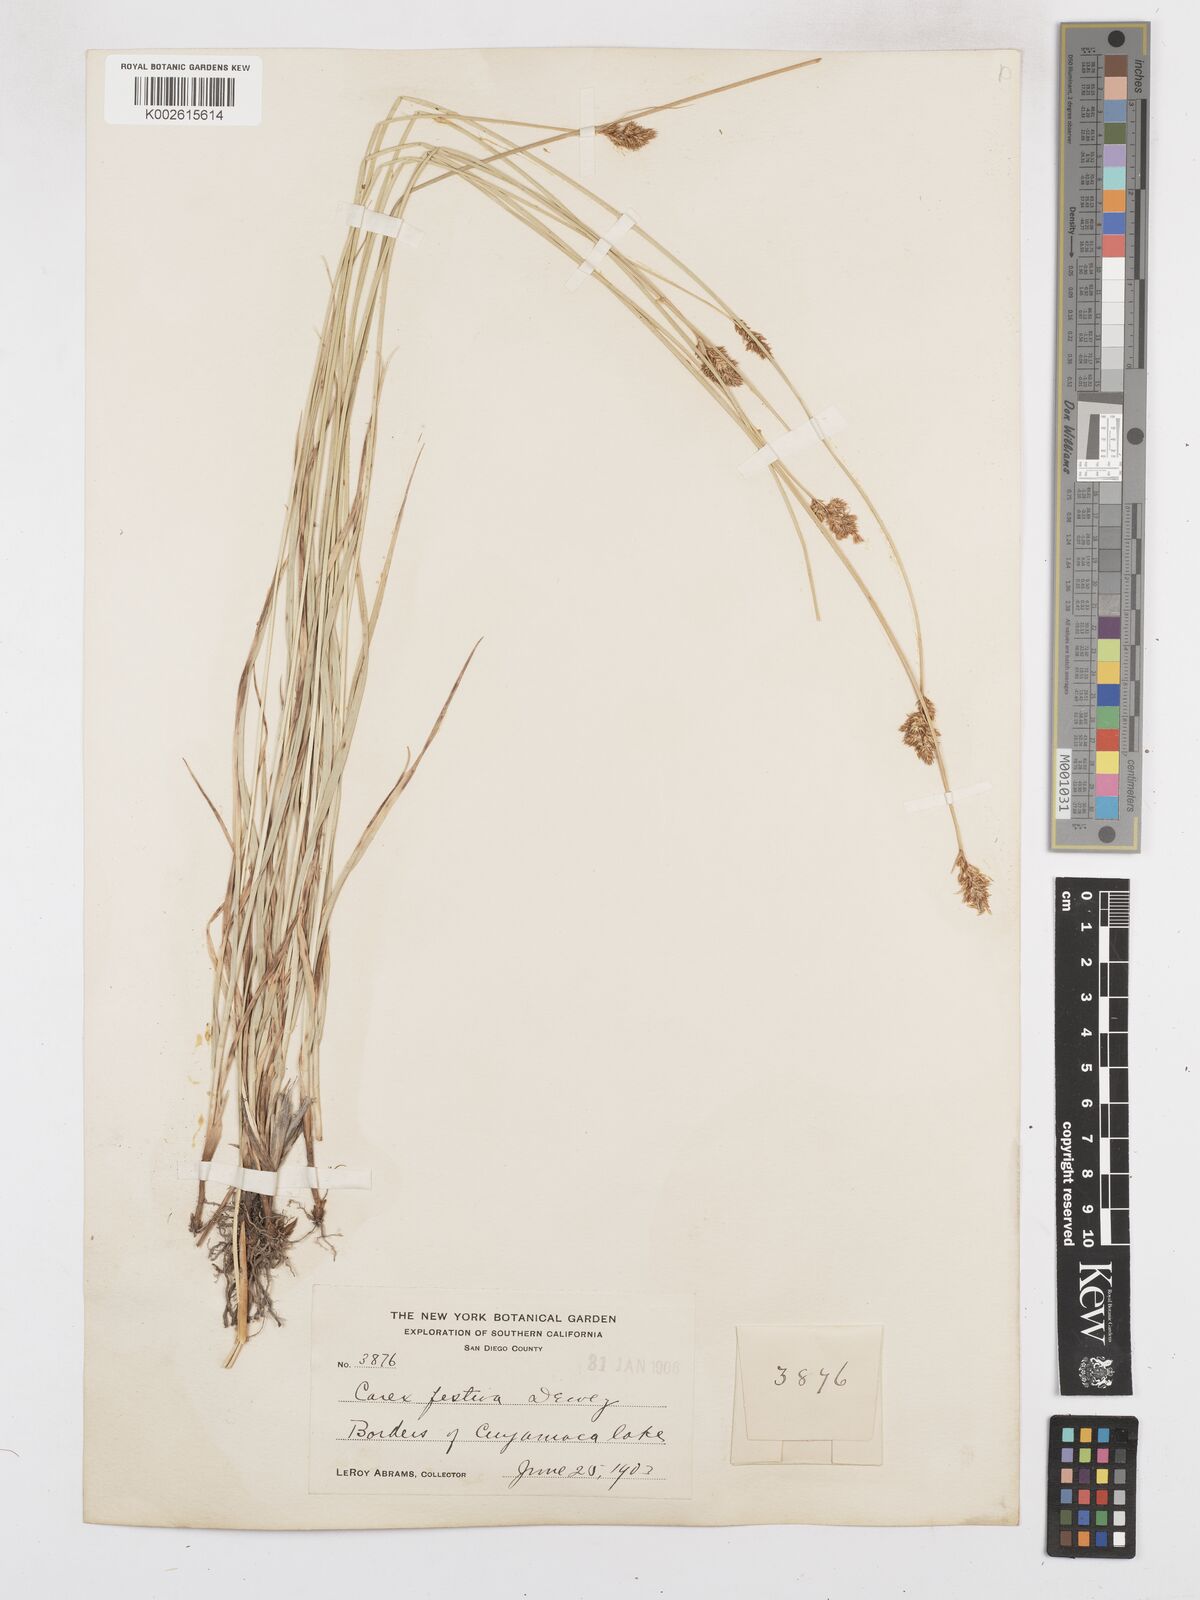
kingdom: Plantae
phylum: Tracheophyta
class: Liliopsida
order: Poales
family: Cyperaceae
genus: Carex
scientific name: Carex harfordii
